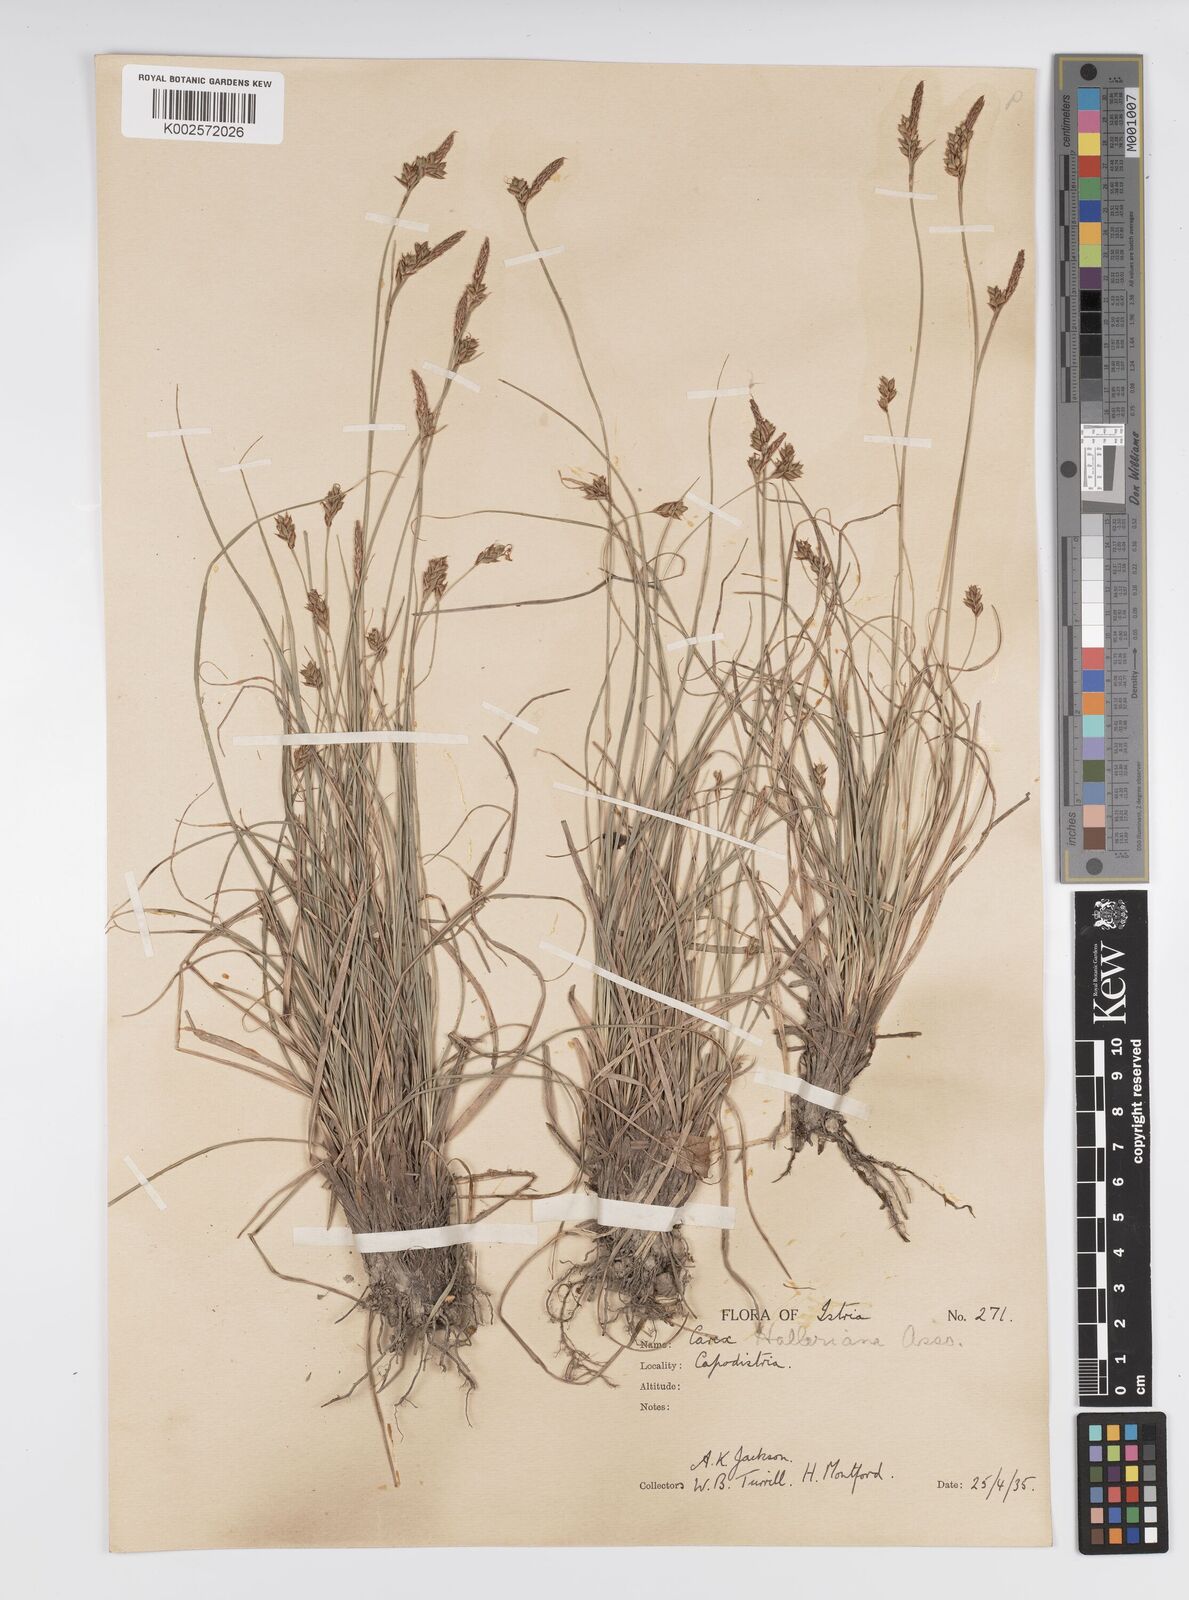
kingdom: Plantae
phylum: Tracheophyta
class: Liliopsida
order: Poales
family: Cyperaceae
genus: Carex
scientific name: Carex halleriana
